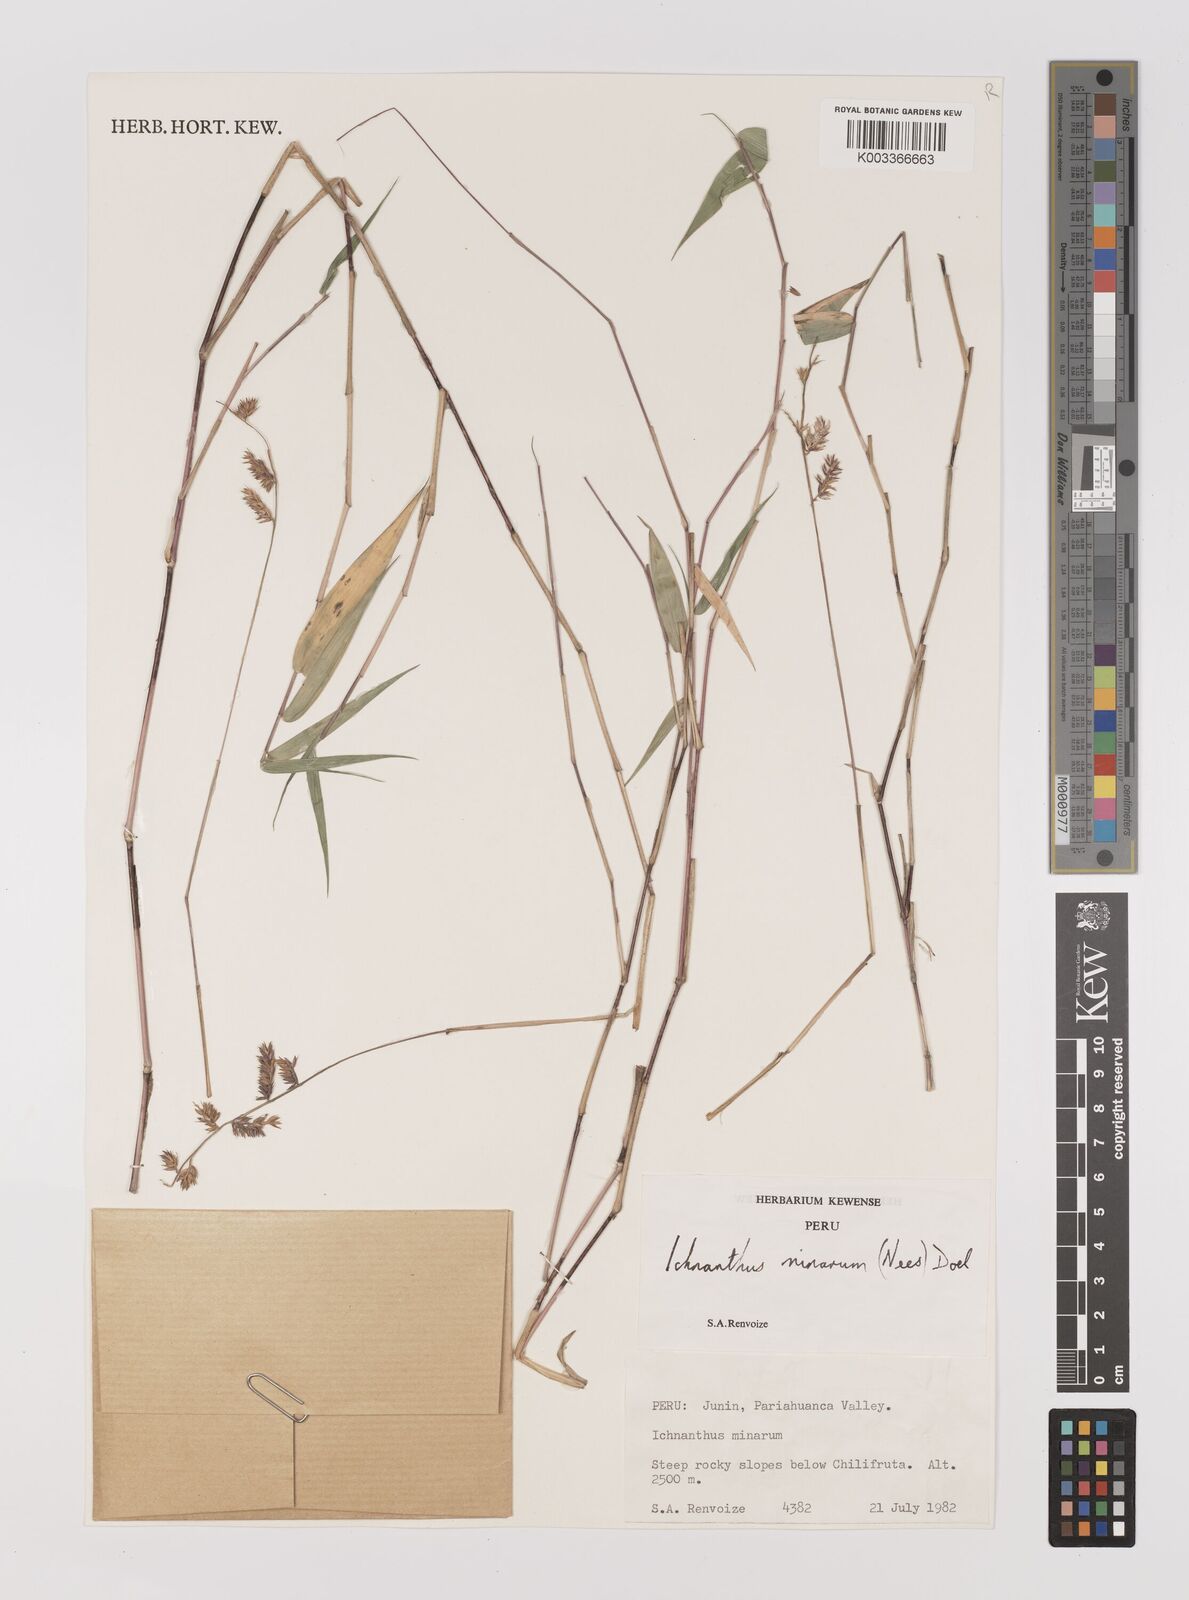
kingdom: Plantae
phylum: Tracheophyta
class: Liliopsida
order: Poales
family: Poaceae
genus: Oedochloa
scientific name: Oedochloa minarum
